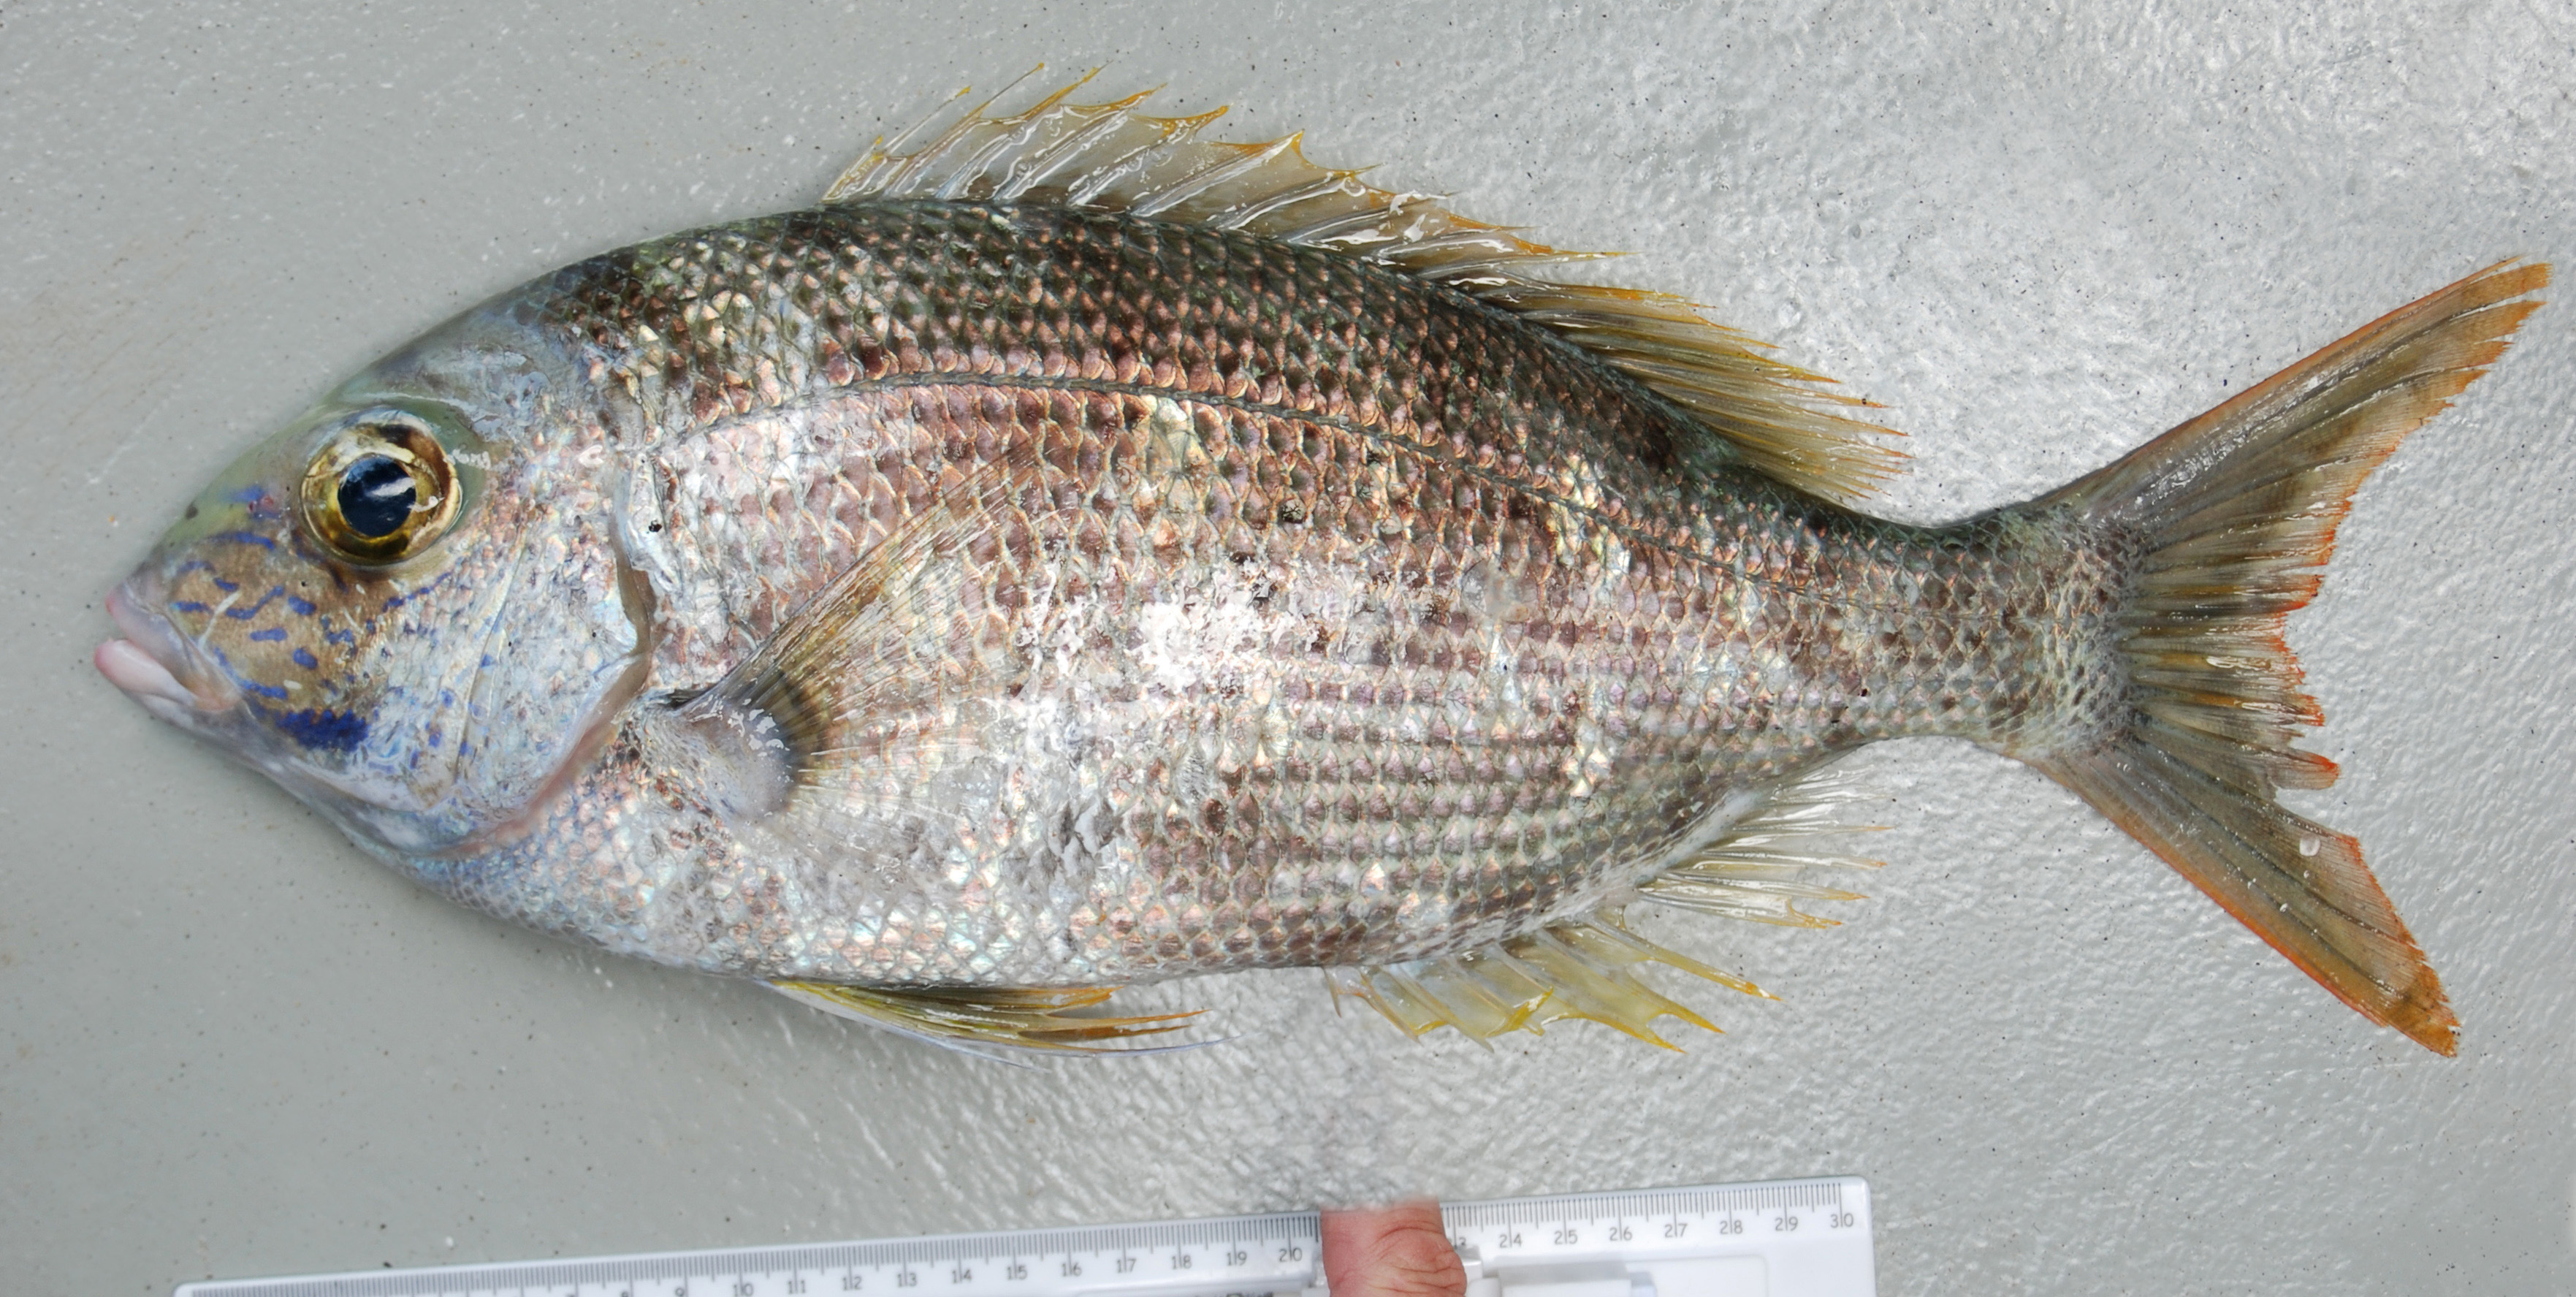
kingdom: Animalia
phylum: Chordata
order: Perciformes
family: Lethrinidae
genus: Gymnocranius
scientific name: Gymnocranius grandoculis
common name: Blue-lined large-eye bream
